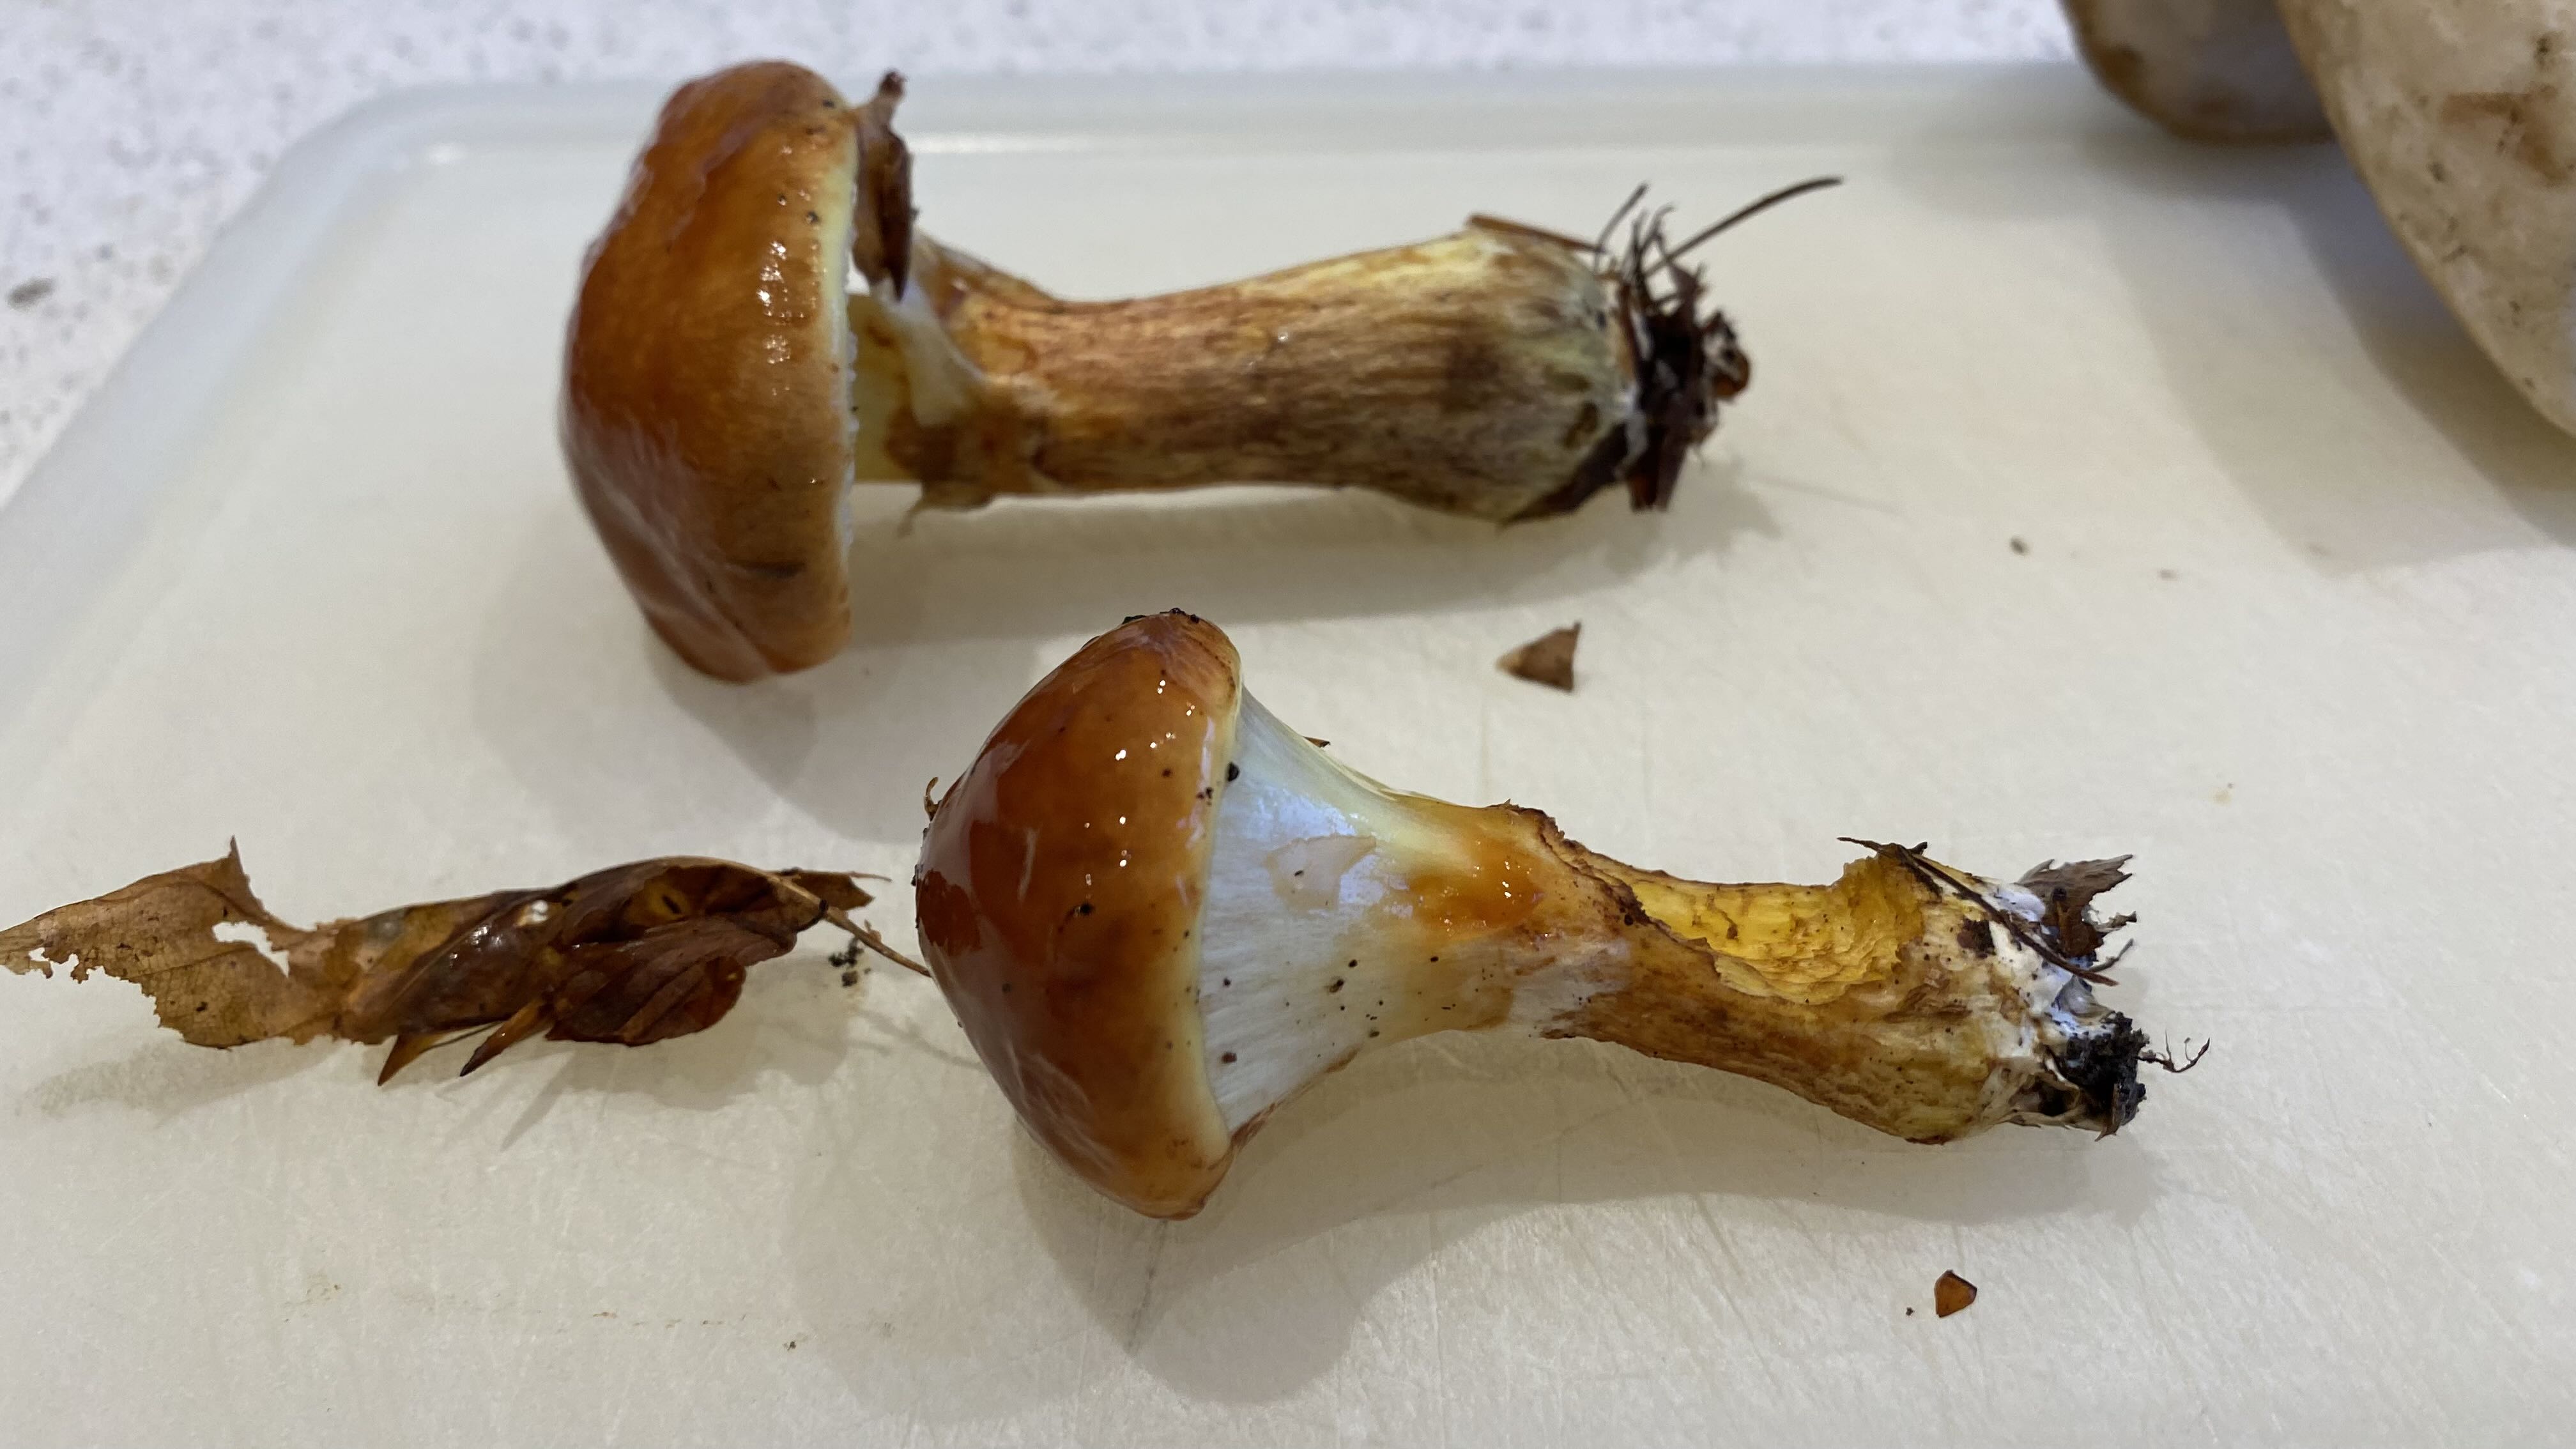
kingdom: Fungi
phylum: Basidiomycota
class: Agaricomycetes
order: Boletales
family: Suillaceae
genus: Suillus
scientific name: Suillus grevillei
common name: Larch bolete
